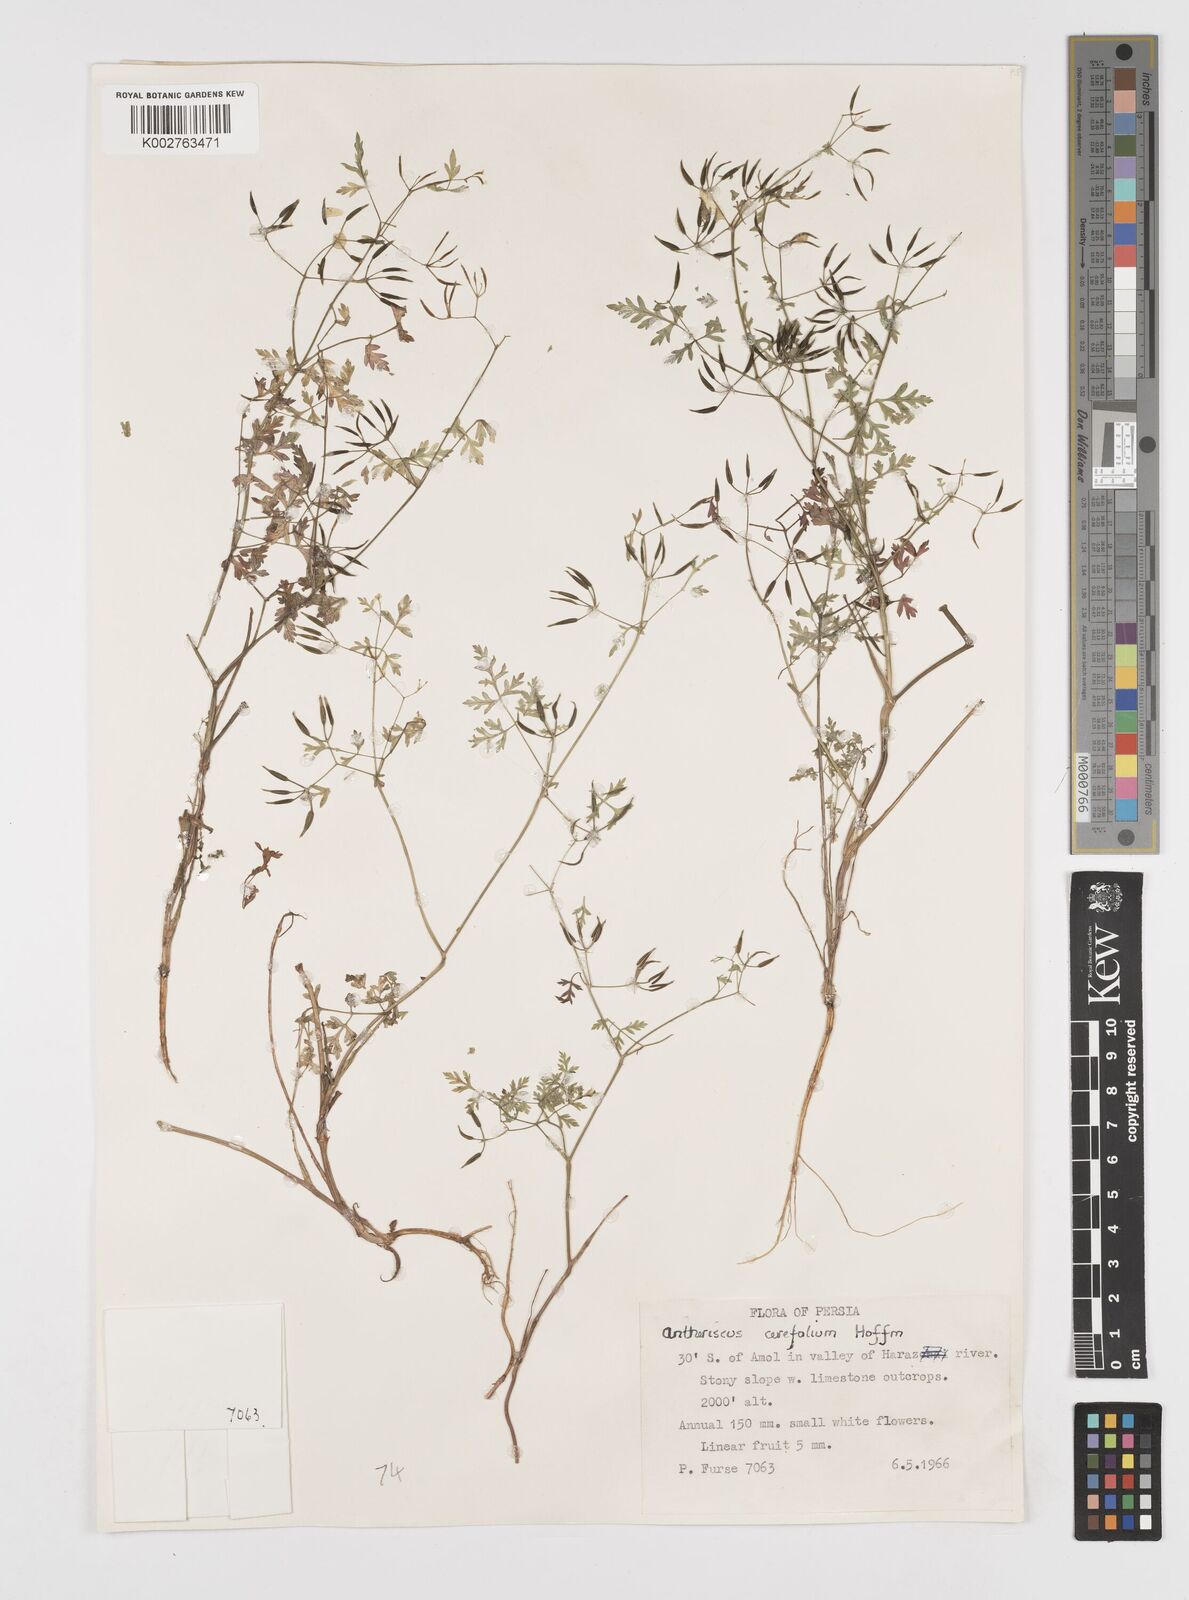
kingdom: Plantae
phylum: Tracheophyta
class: Magnoliopsida
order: Apiales
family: Apiaceae
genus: Anthriscus
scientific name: Anthriscus cerefolium
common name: Garden chervil
